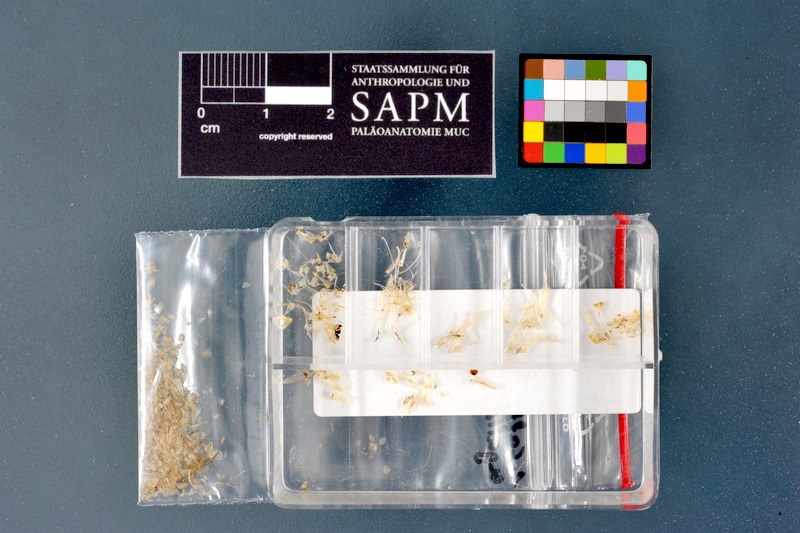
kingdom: Animalia
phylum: Chordata
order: Perciformes
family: Gobiidae
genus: Caffrogobius
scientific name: Caffrogobius agulhensis
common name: Agulhas goby
